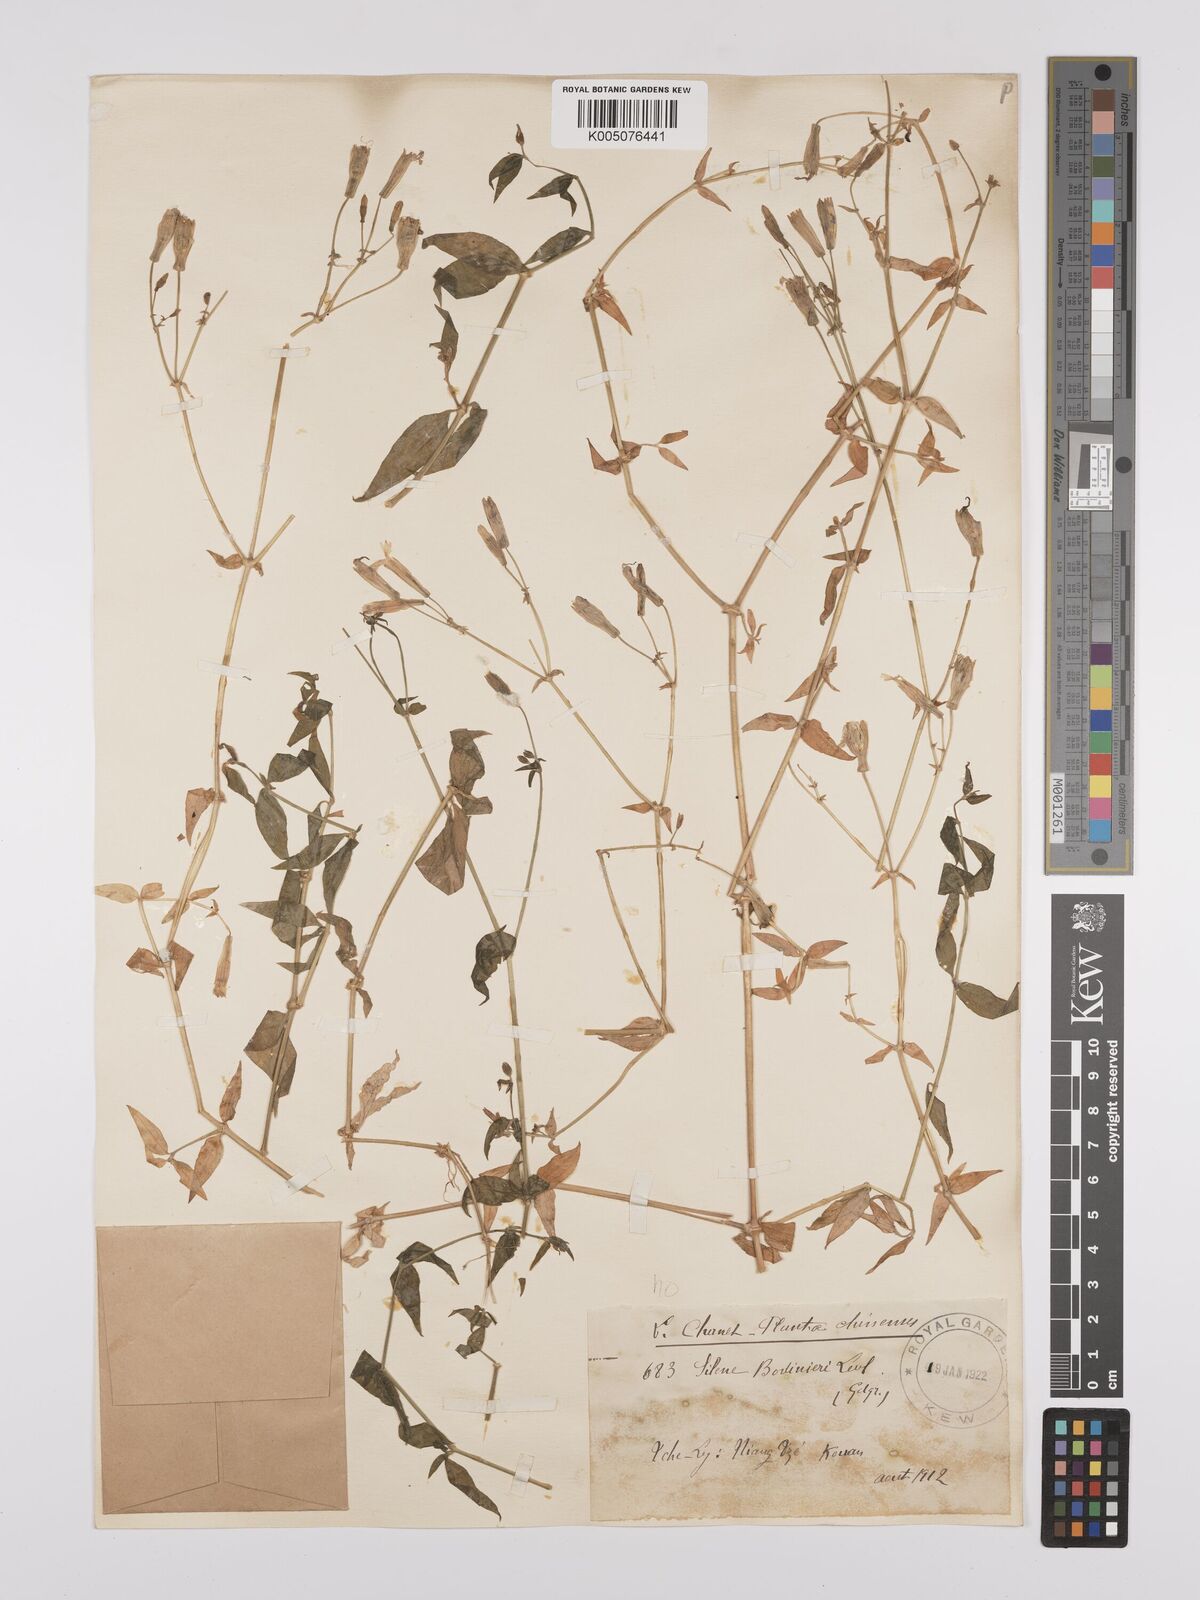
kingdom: Plantae
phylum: Tracheophyta
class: Magnoliopsida
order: Caryophyllales
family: Caryophyllaceae
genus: Silene
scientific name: Silene
